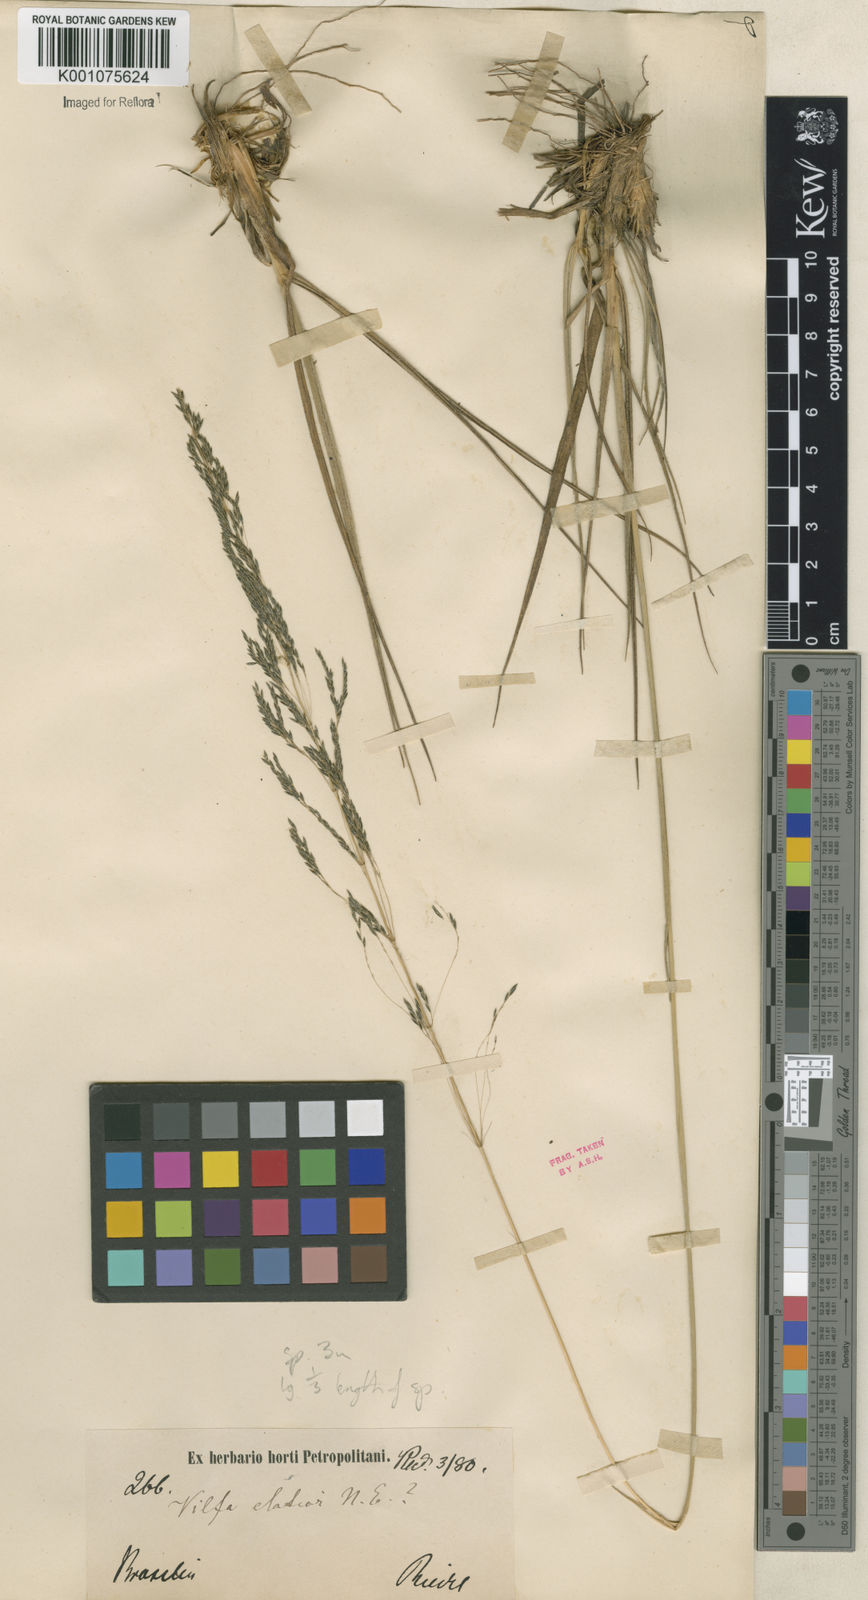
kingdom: Plantae
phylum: Tracheophyta
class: Liliopsida
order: Poales
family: Poaceae
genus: Sporobolus
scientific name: Sporobolus camporum
